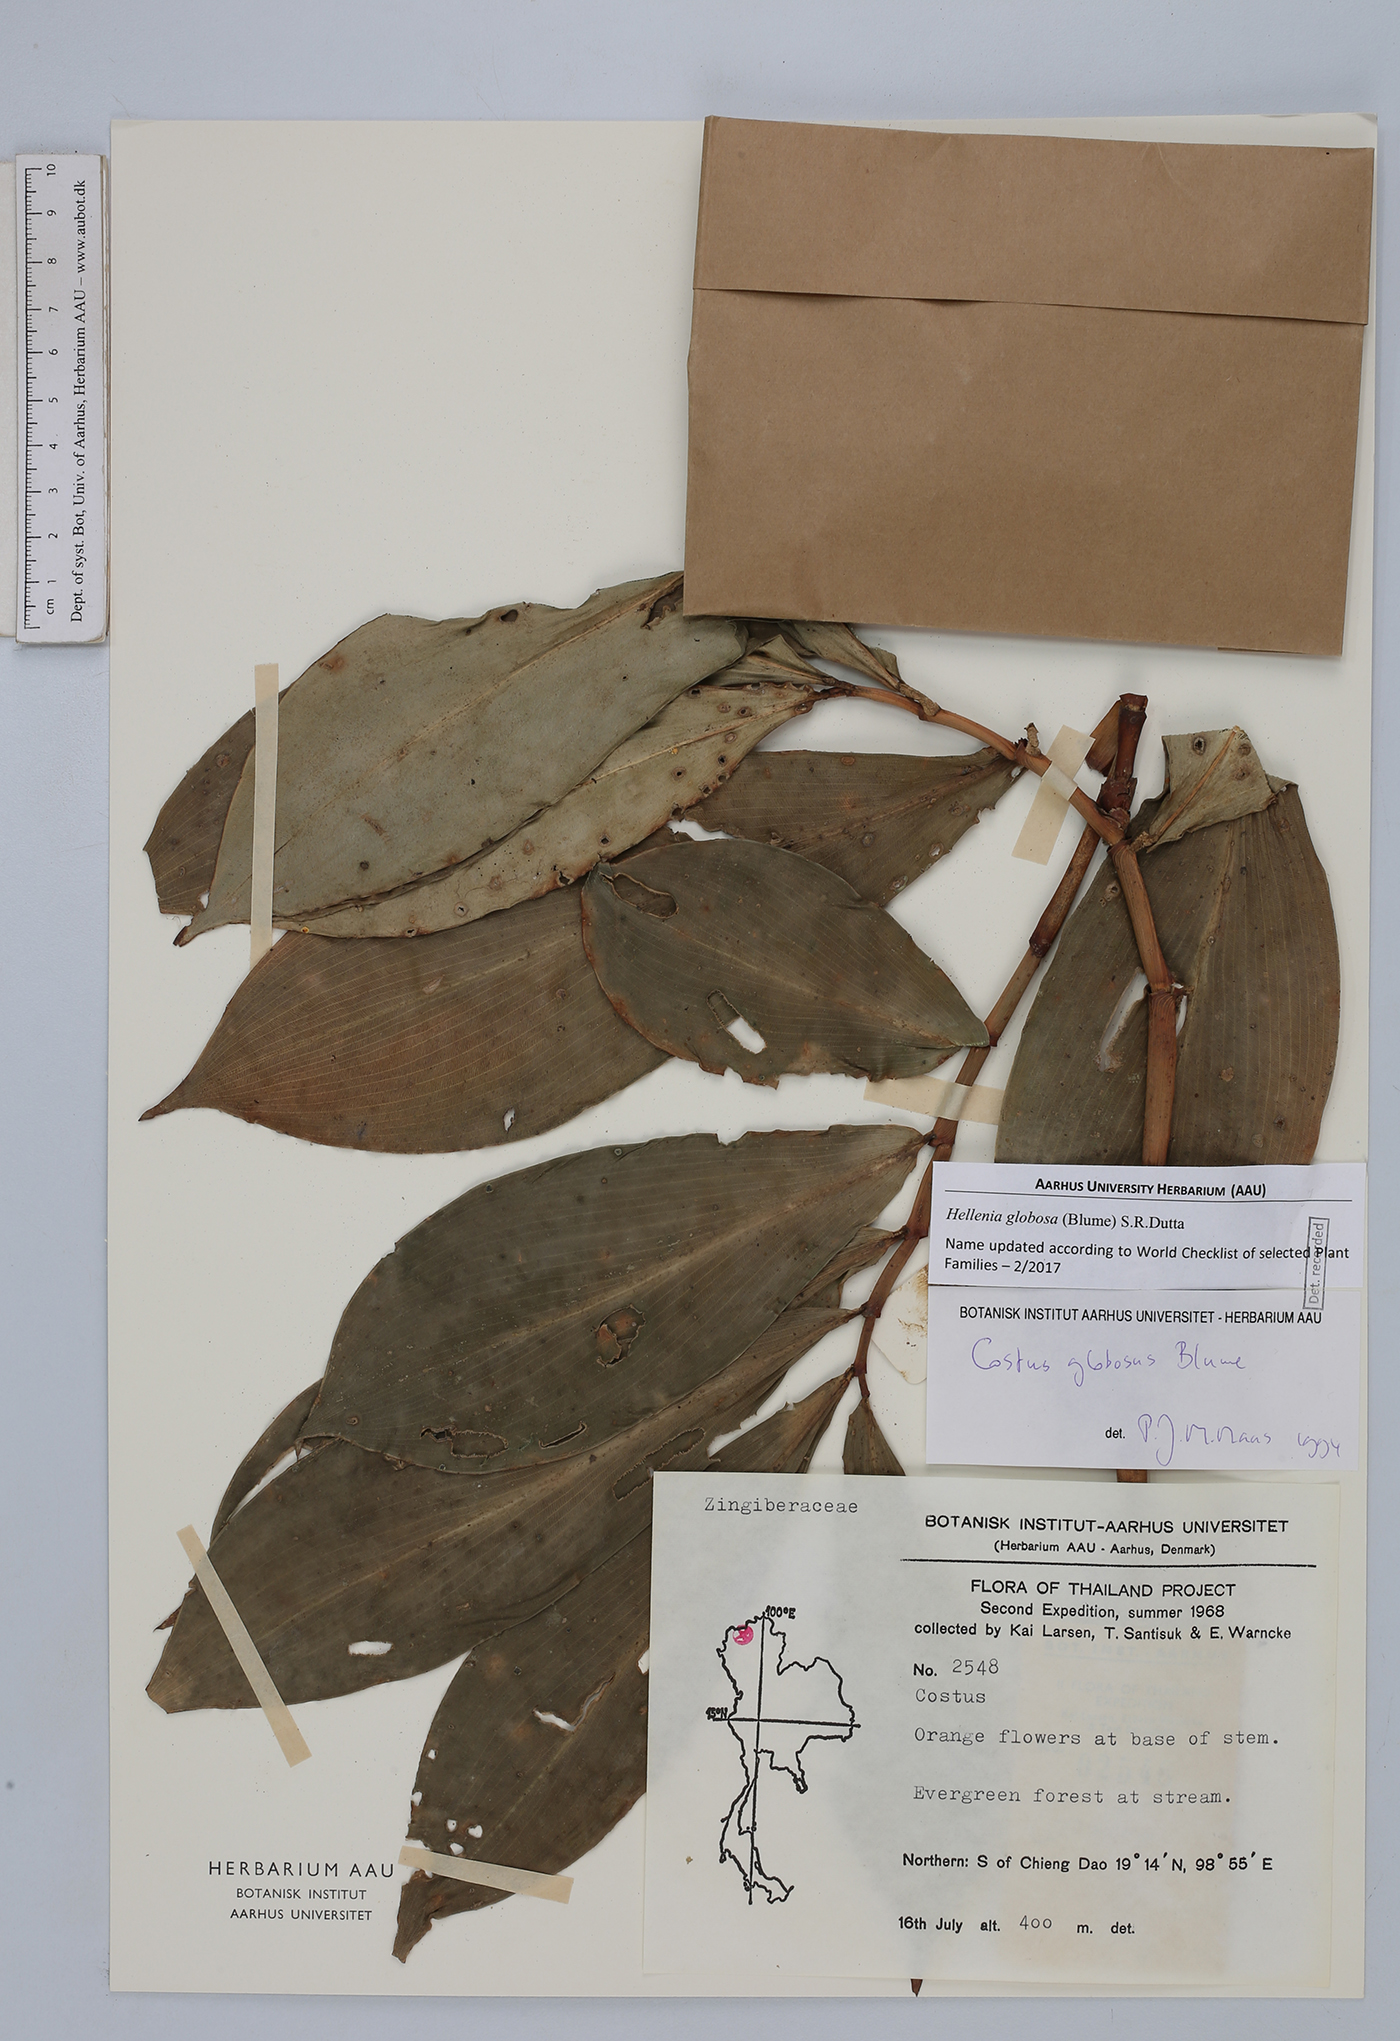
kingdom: Plantae
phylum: Tracheophyta
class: Liliopsida
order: Zingiberales
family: Costaceae
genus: Hellenia
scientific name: Hellenia globosa
